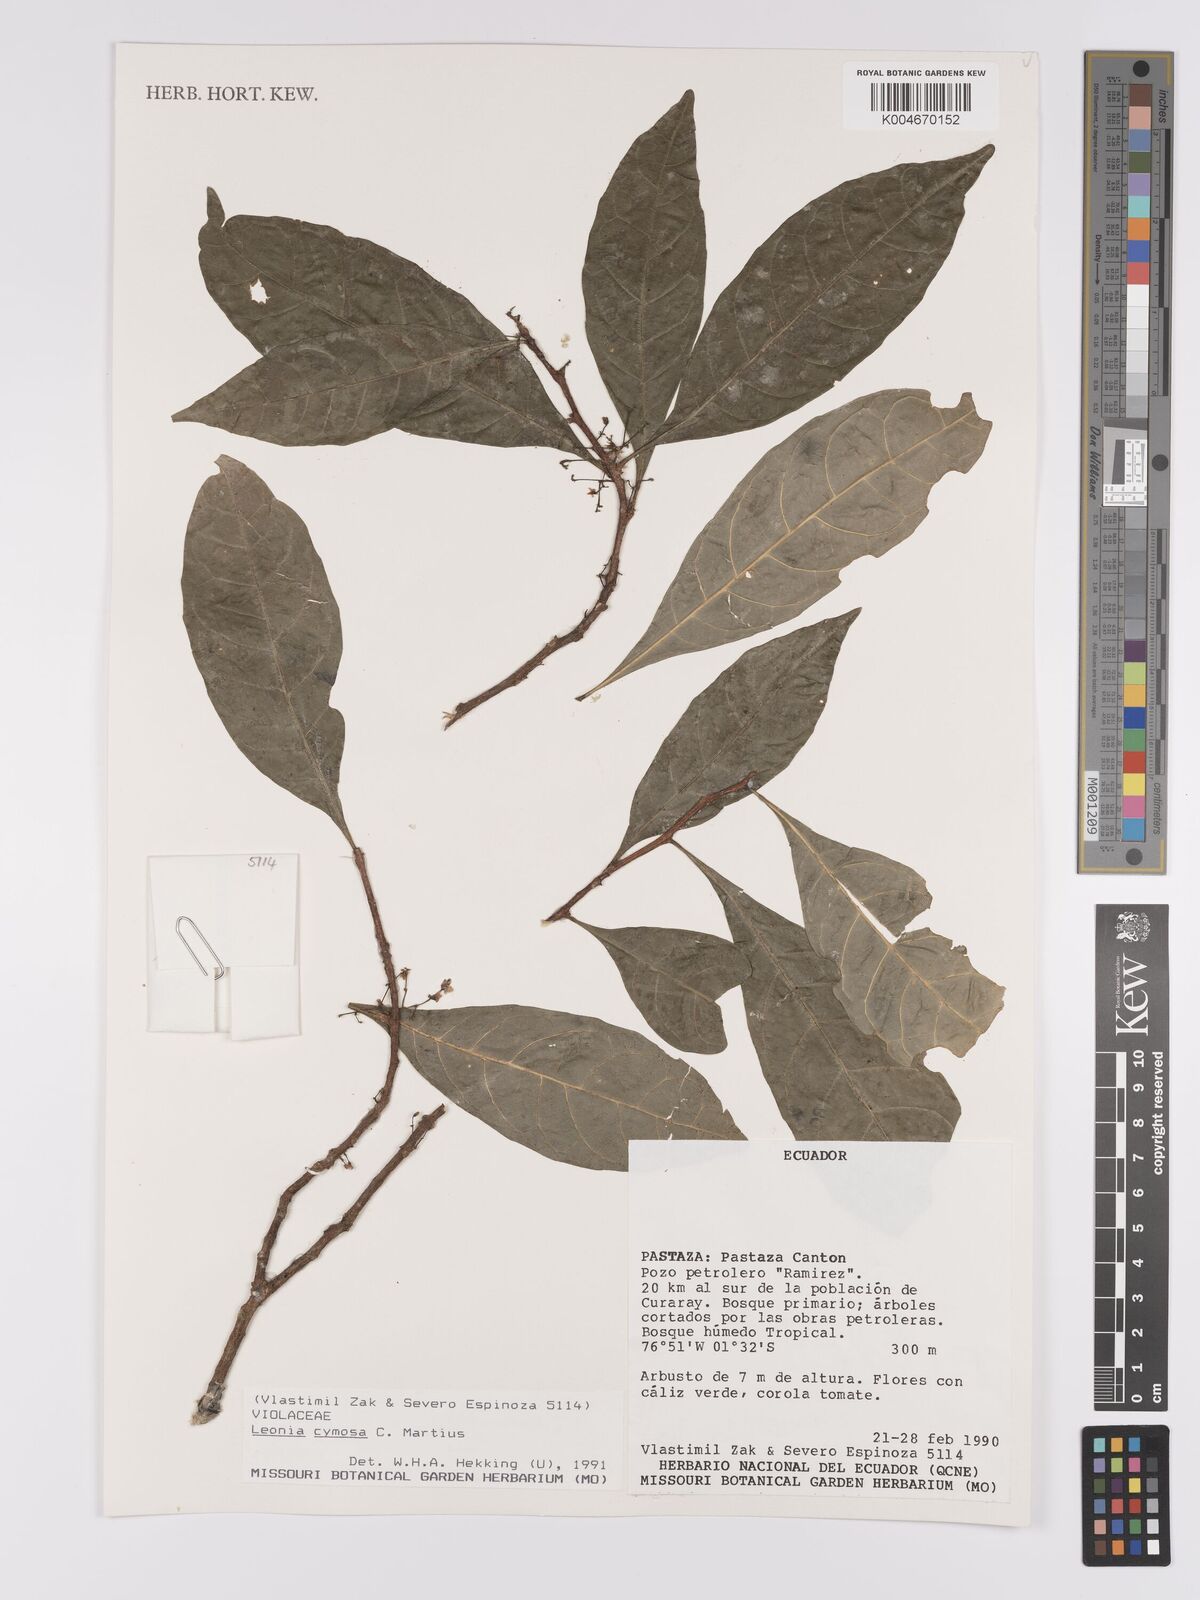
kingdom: Plantae
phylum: Tracheophyta
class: Magnoliopsida
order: Malpighiales
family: Violaceae
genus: Leonia
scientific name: Leonia cymosa
